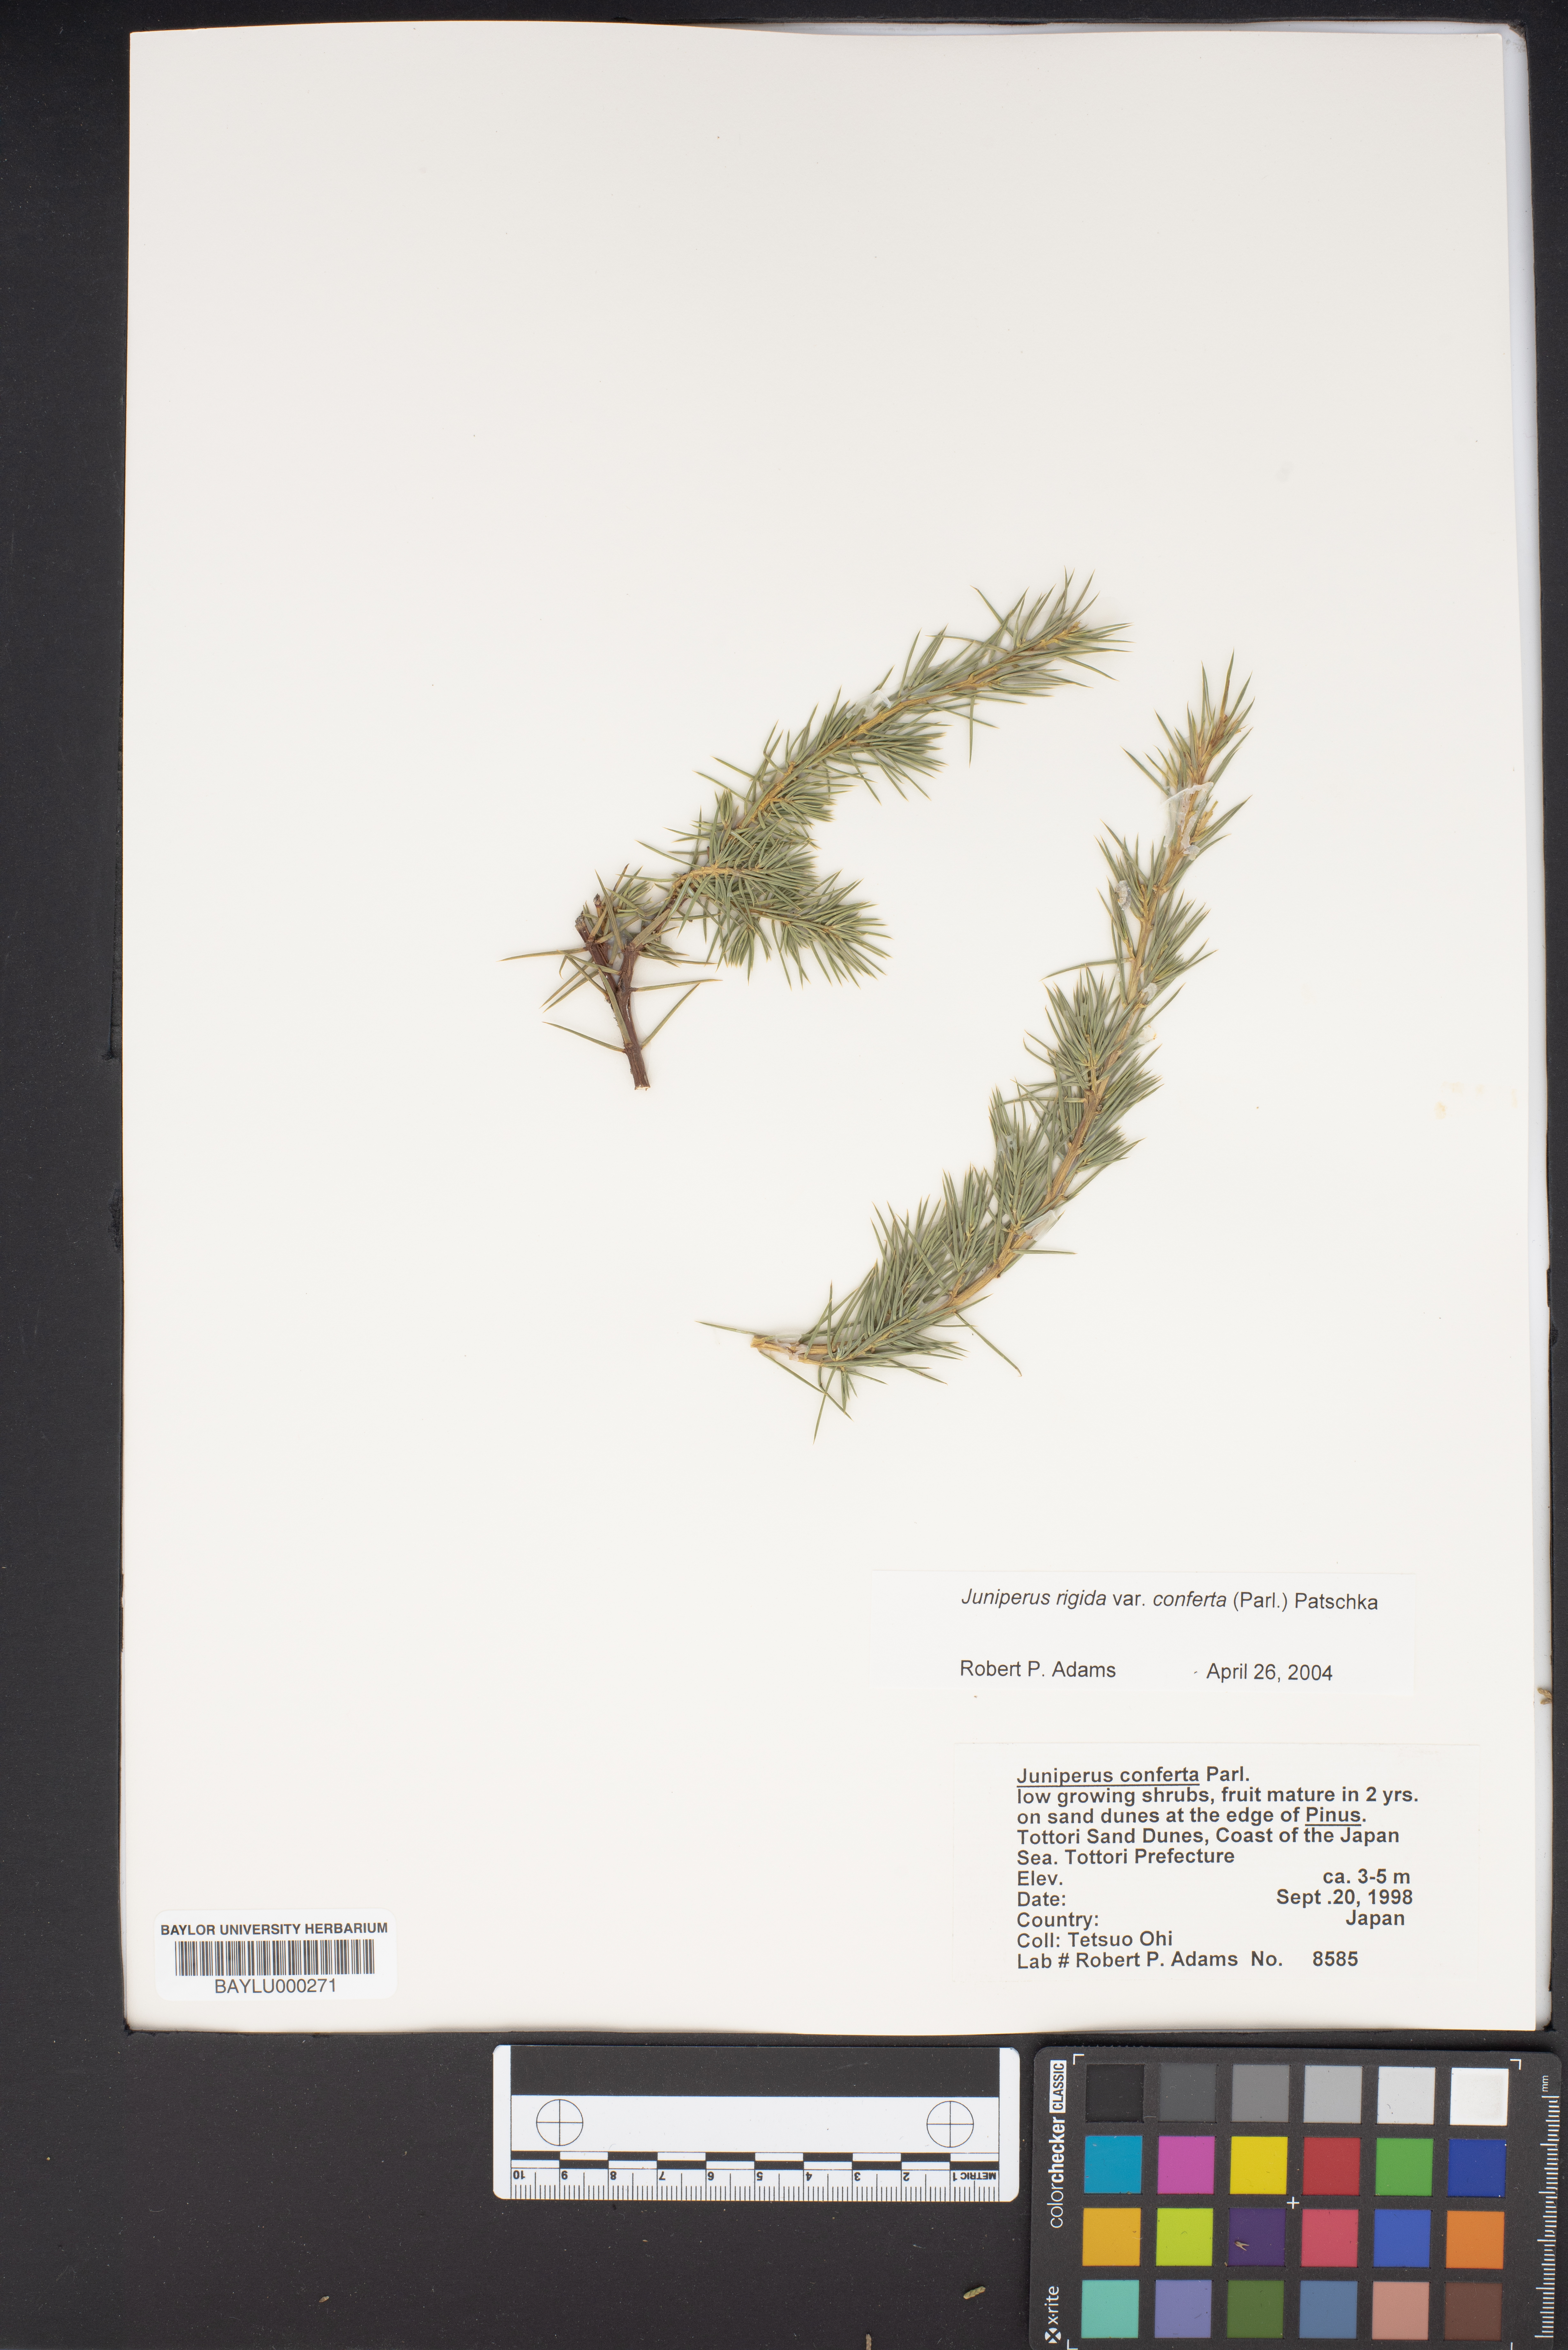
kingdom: Plantae
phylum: Tracheophyta
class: Pinopsida
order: Pinales
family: Cupressaceae
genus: Juniperus
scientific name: Juniperus rigida
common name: Needle juniper
